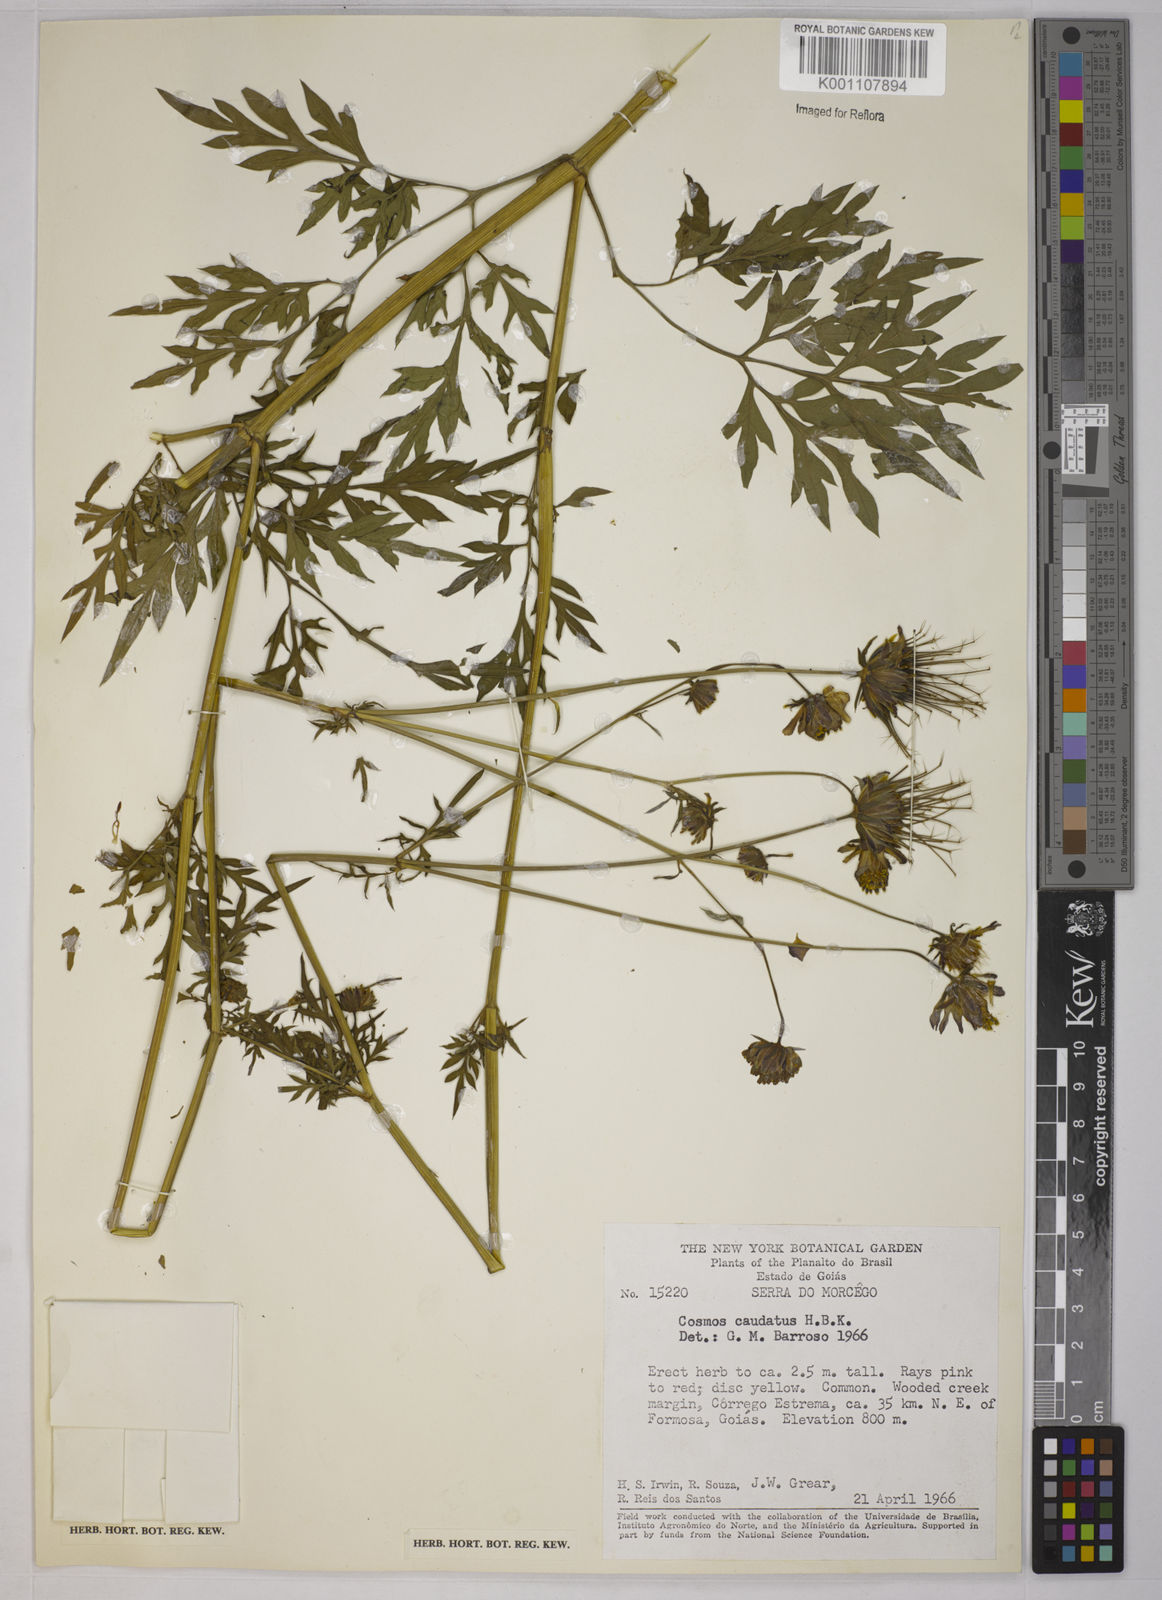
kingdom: Plantae
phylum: Tracheophyta
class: Magnoliopsida
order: Asterales
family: Asteraceae
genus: Cosmos
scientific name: Cosmos caudatus
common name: Wild cosmos
